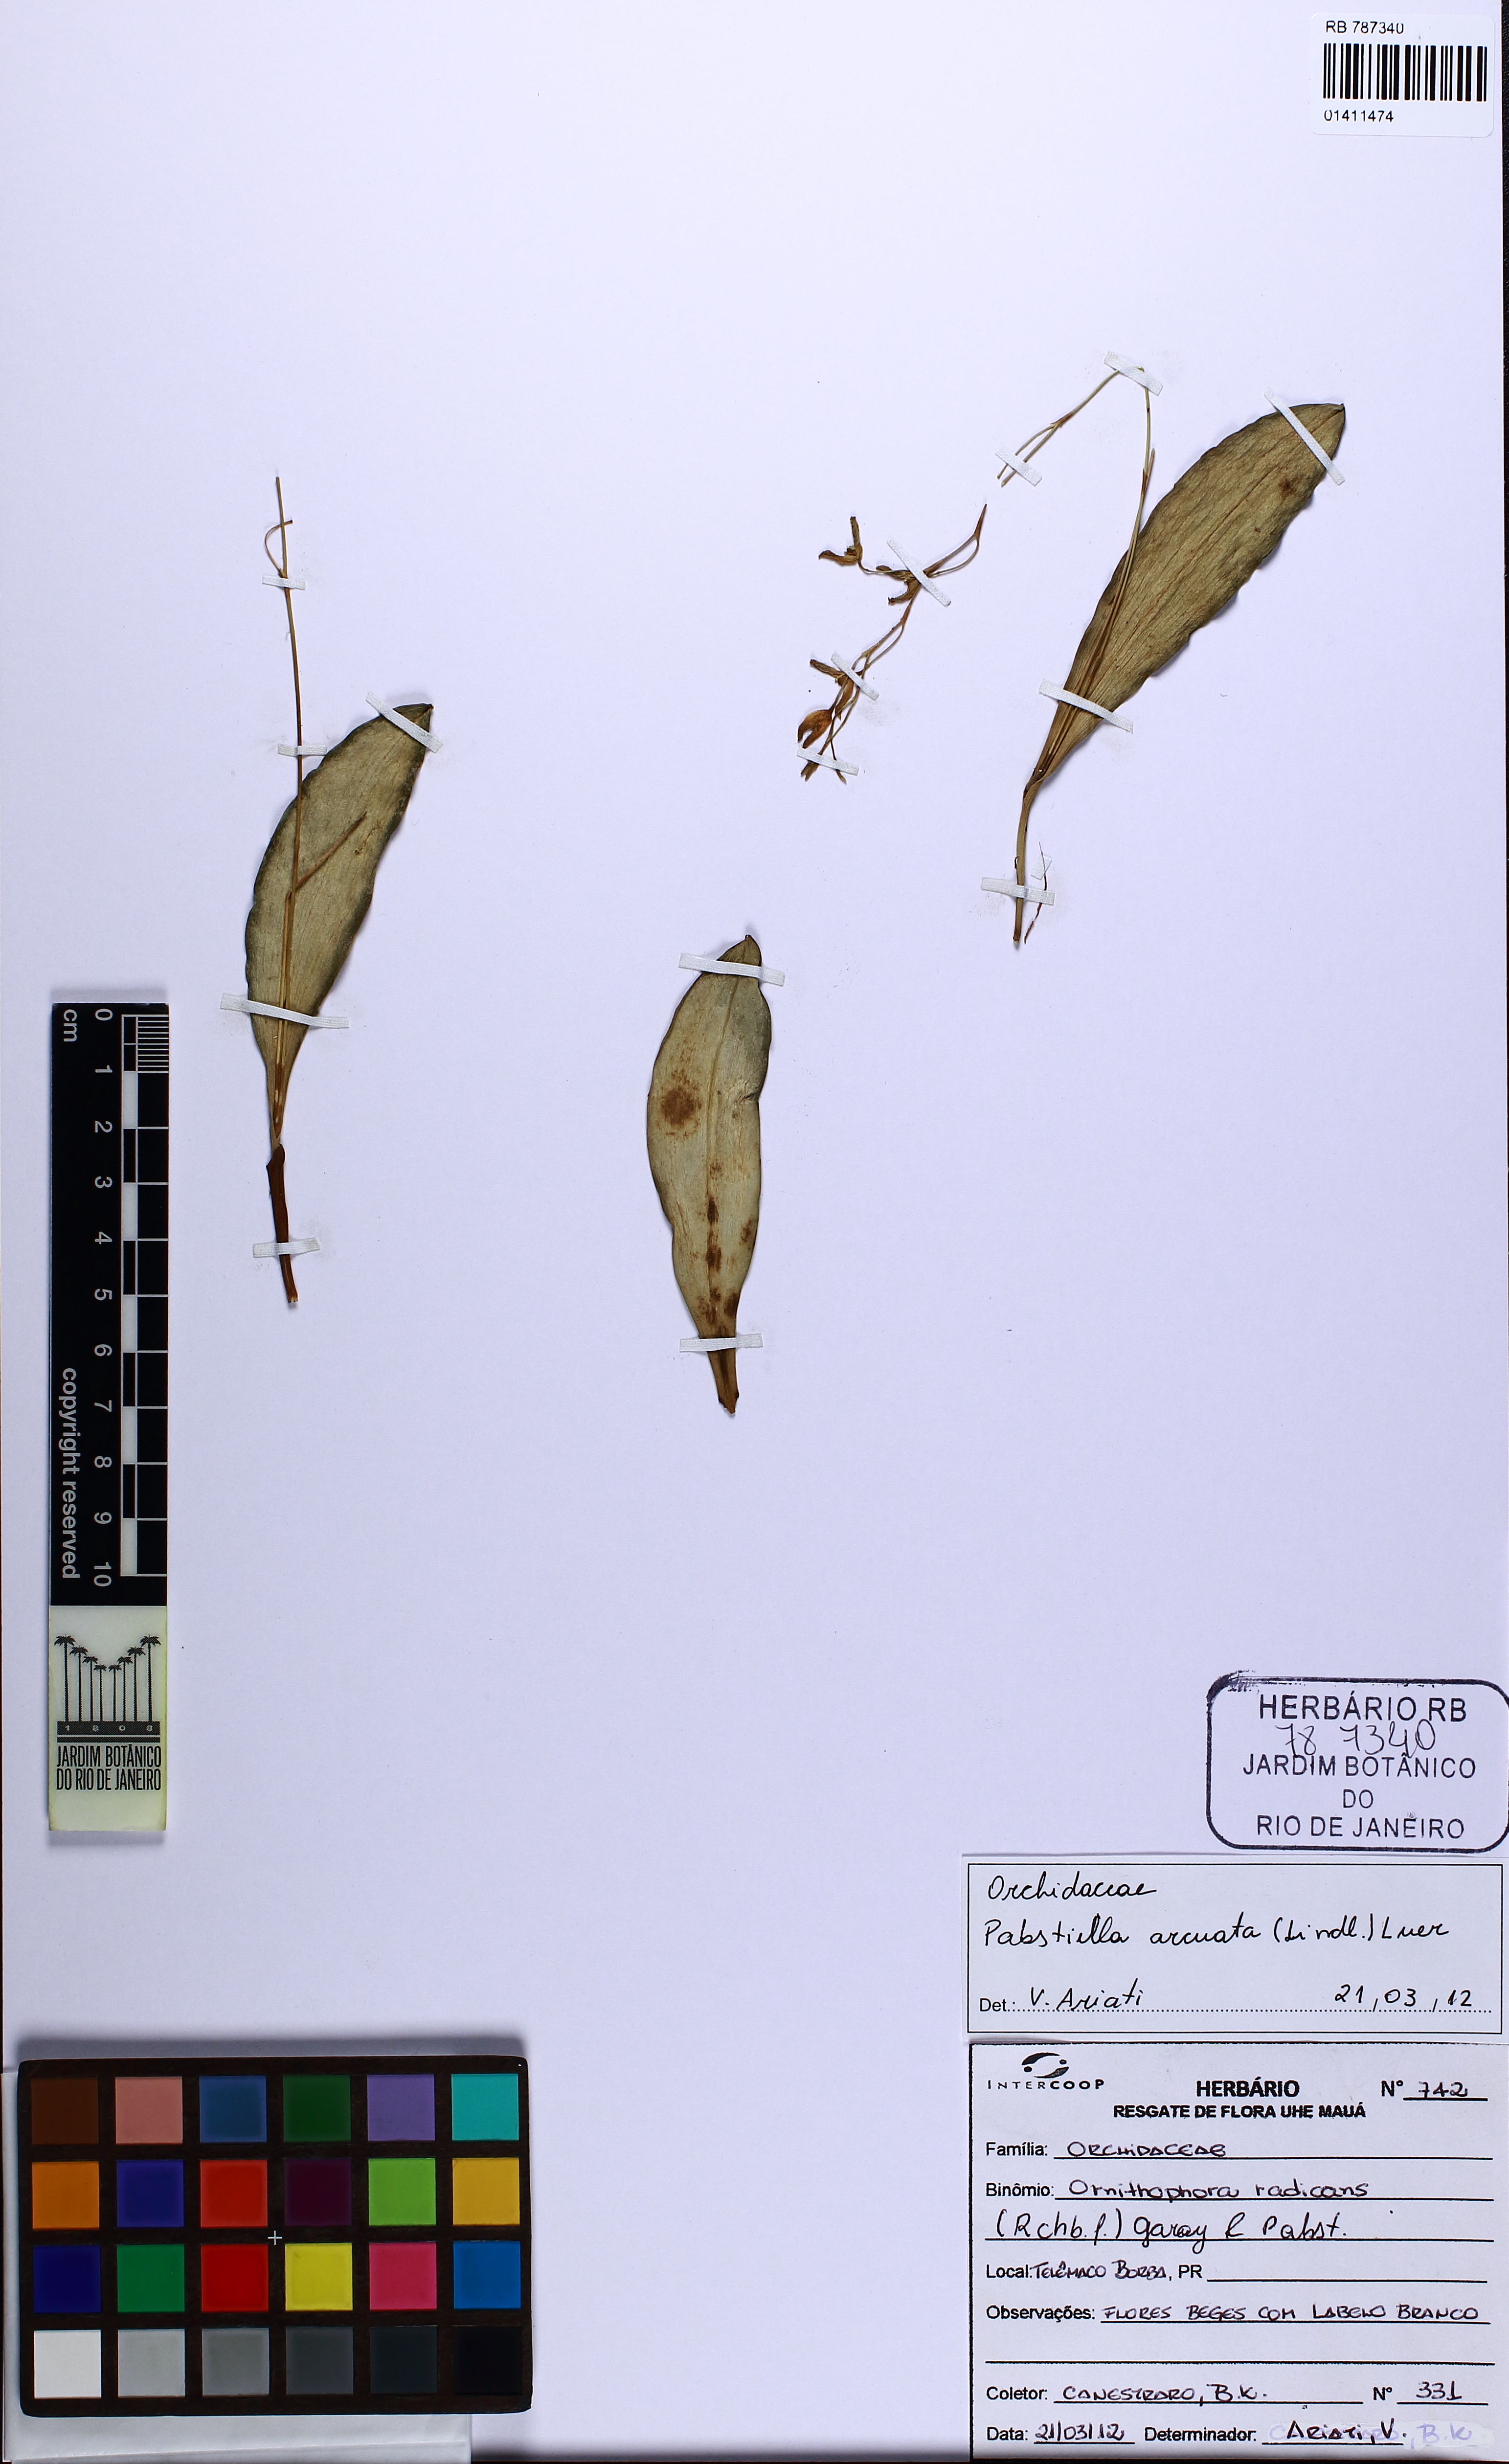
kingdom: Plantae
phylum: Tracheophyta
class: Liliopsida
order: Asparagales
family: Orchidaceae
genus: Pabstiella
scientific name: Pabstiella
